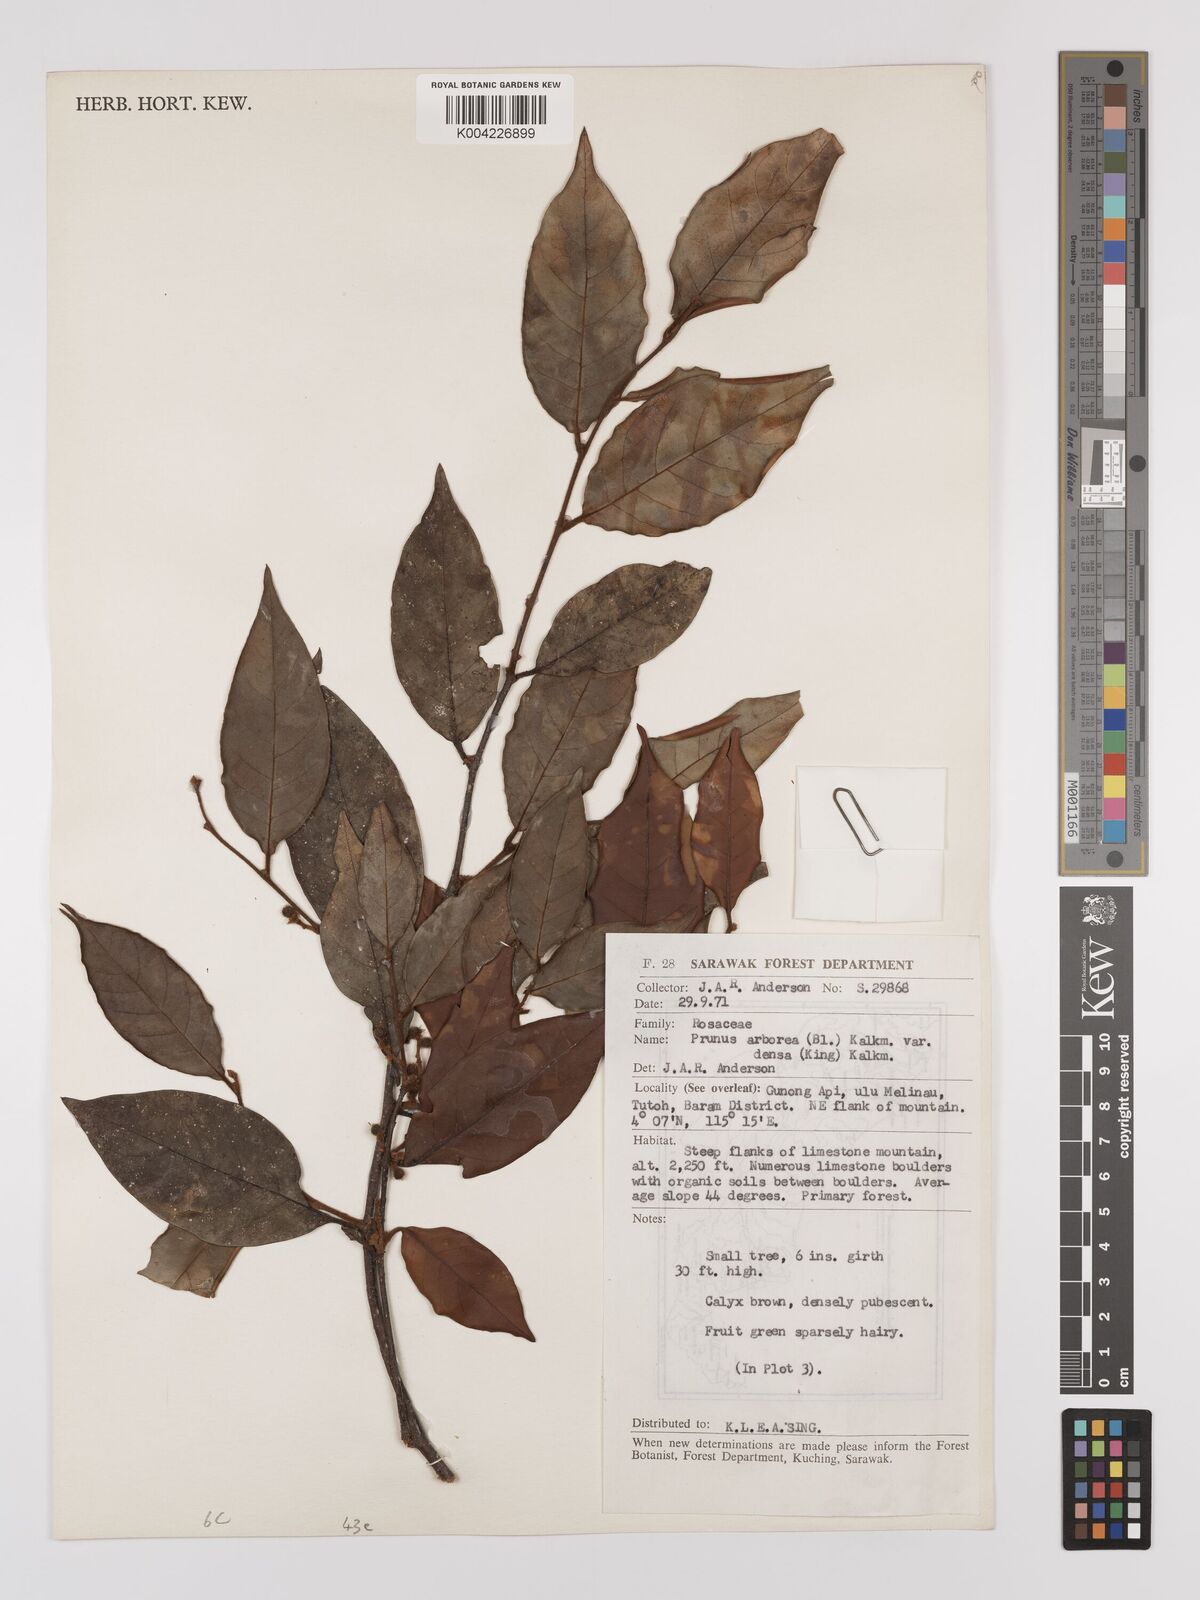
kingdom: Plantae
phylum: Tracheophyta
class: Magnoliopsida
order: Rosales
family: Rosaceae
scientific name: Rosaceae
